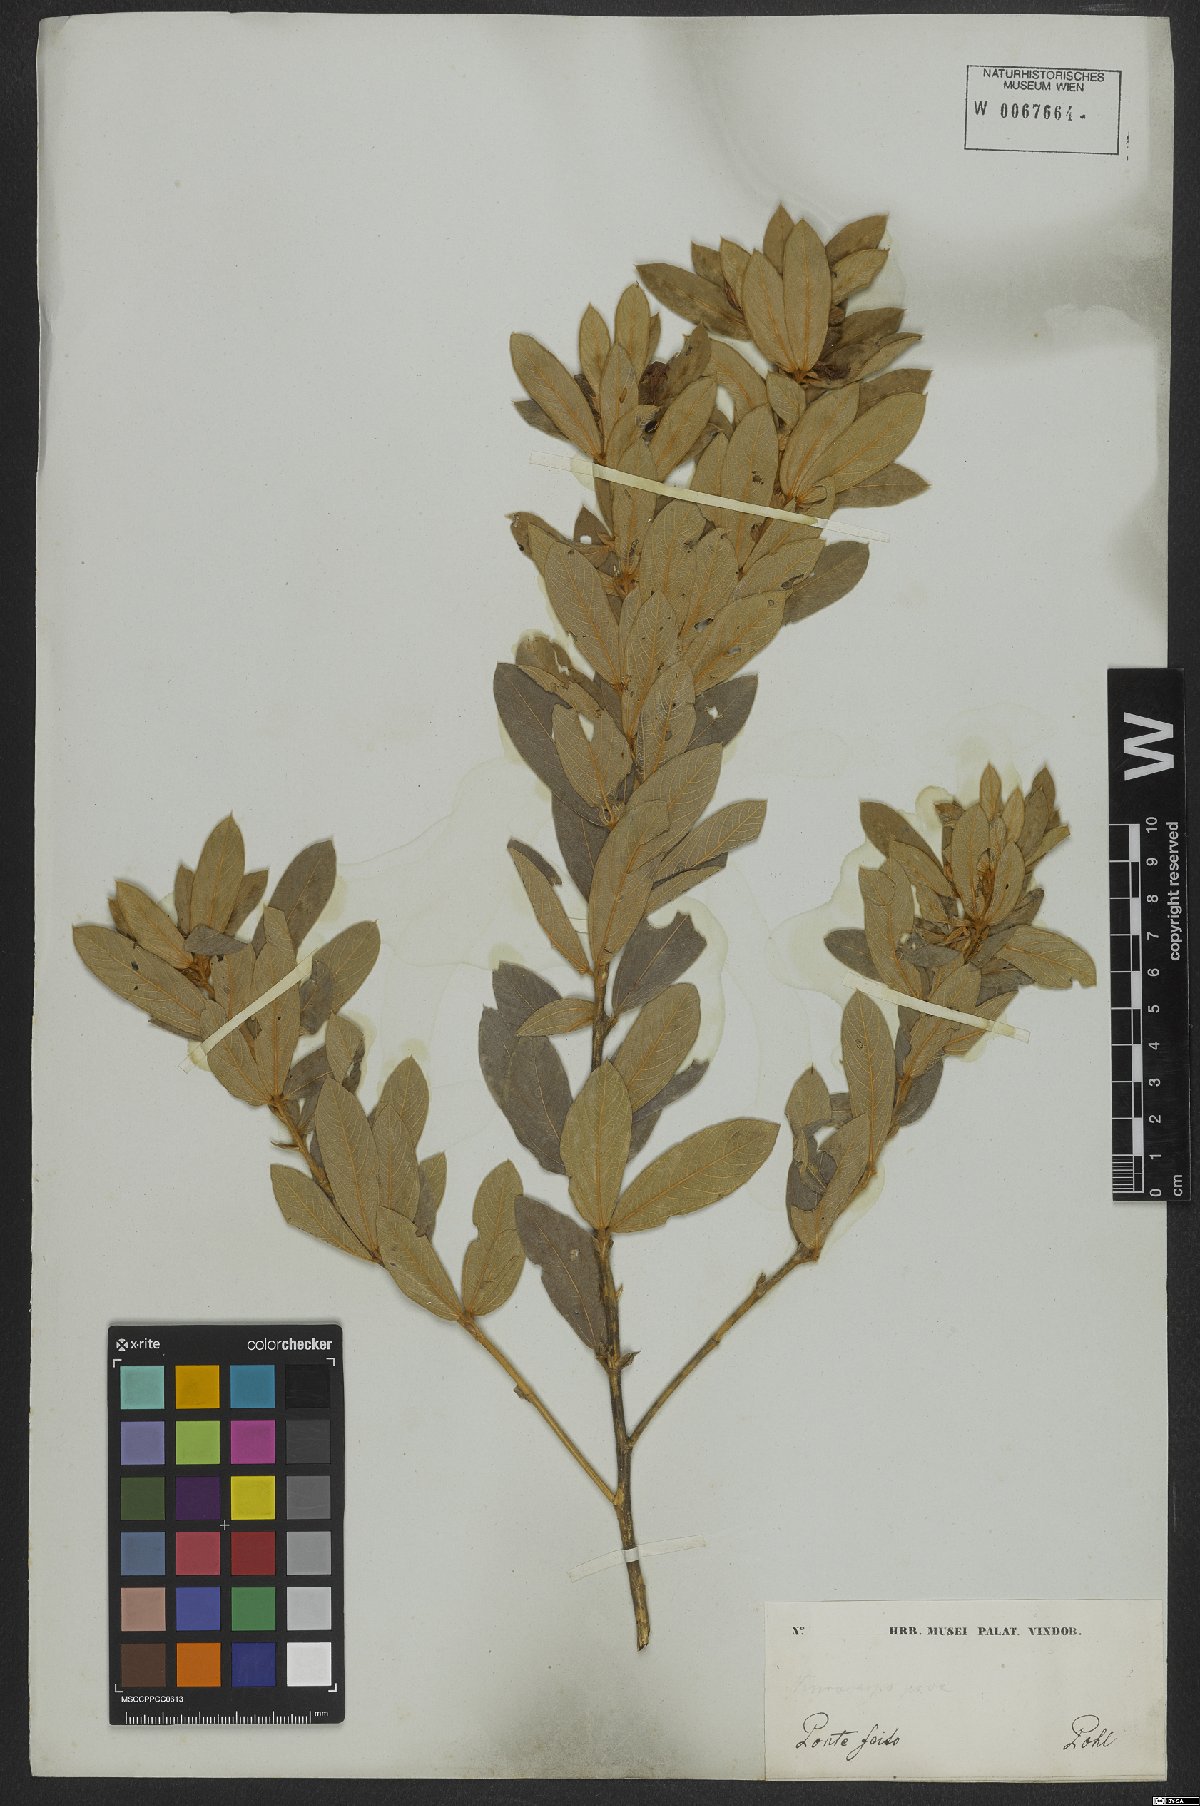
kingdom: Plantae
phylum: Tracheophyta
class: Magnoliopsida
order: Fabales
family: Fabaceae
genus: Eriosema
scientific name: Eriosema strictum
